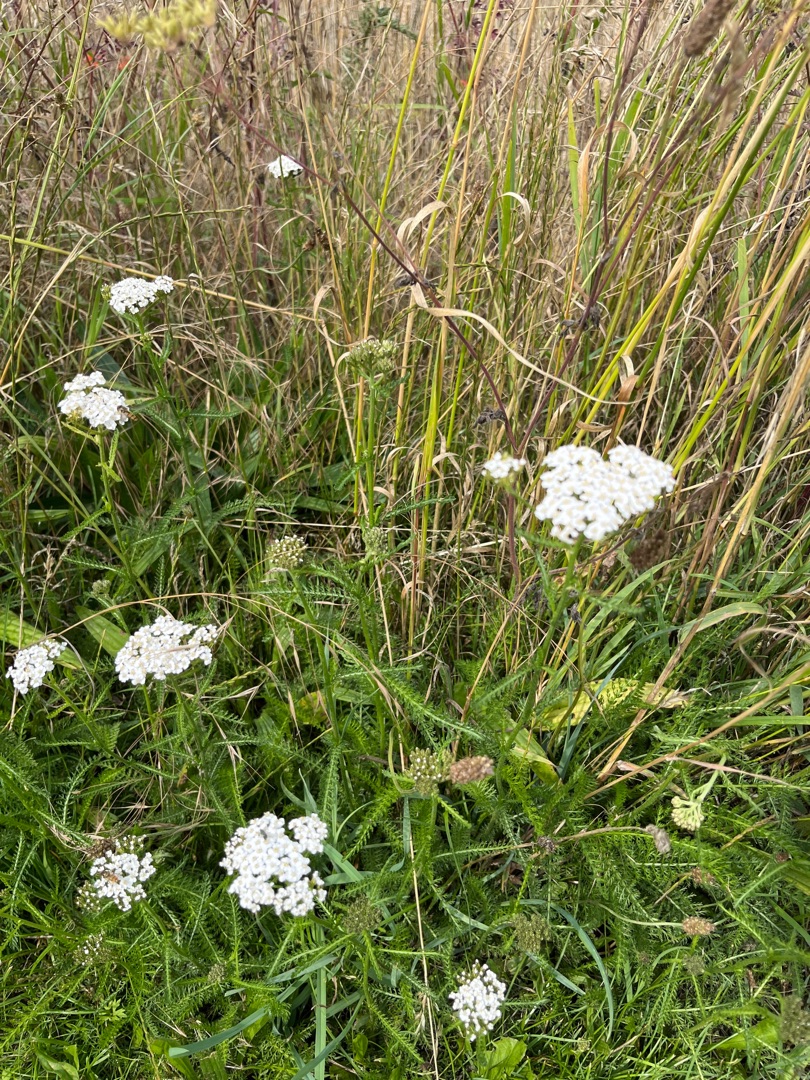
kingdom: Plantae
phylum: Tracheophyta
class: Magnoliopsida
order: Asterales
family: Asteraceae
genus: Achillea
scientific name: Achillea millefolium
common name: Almindelig røllike
